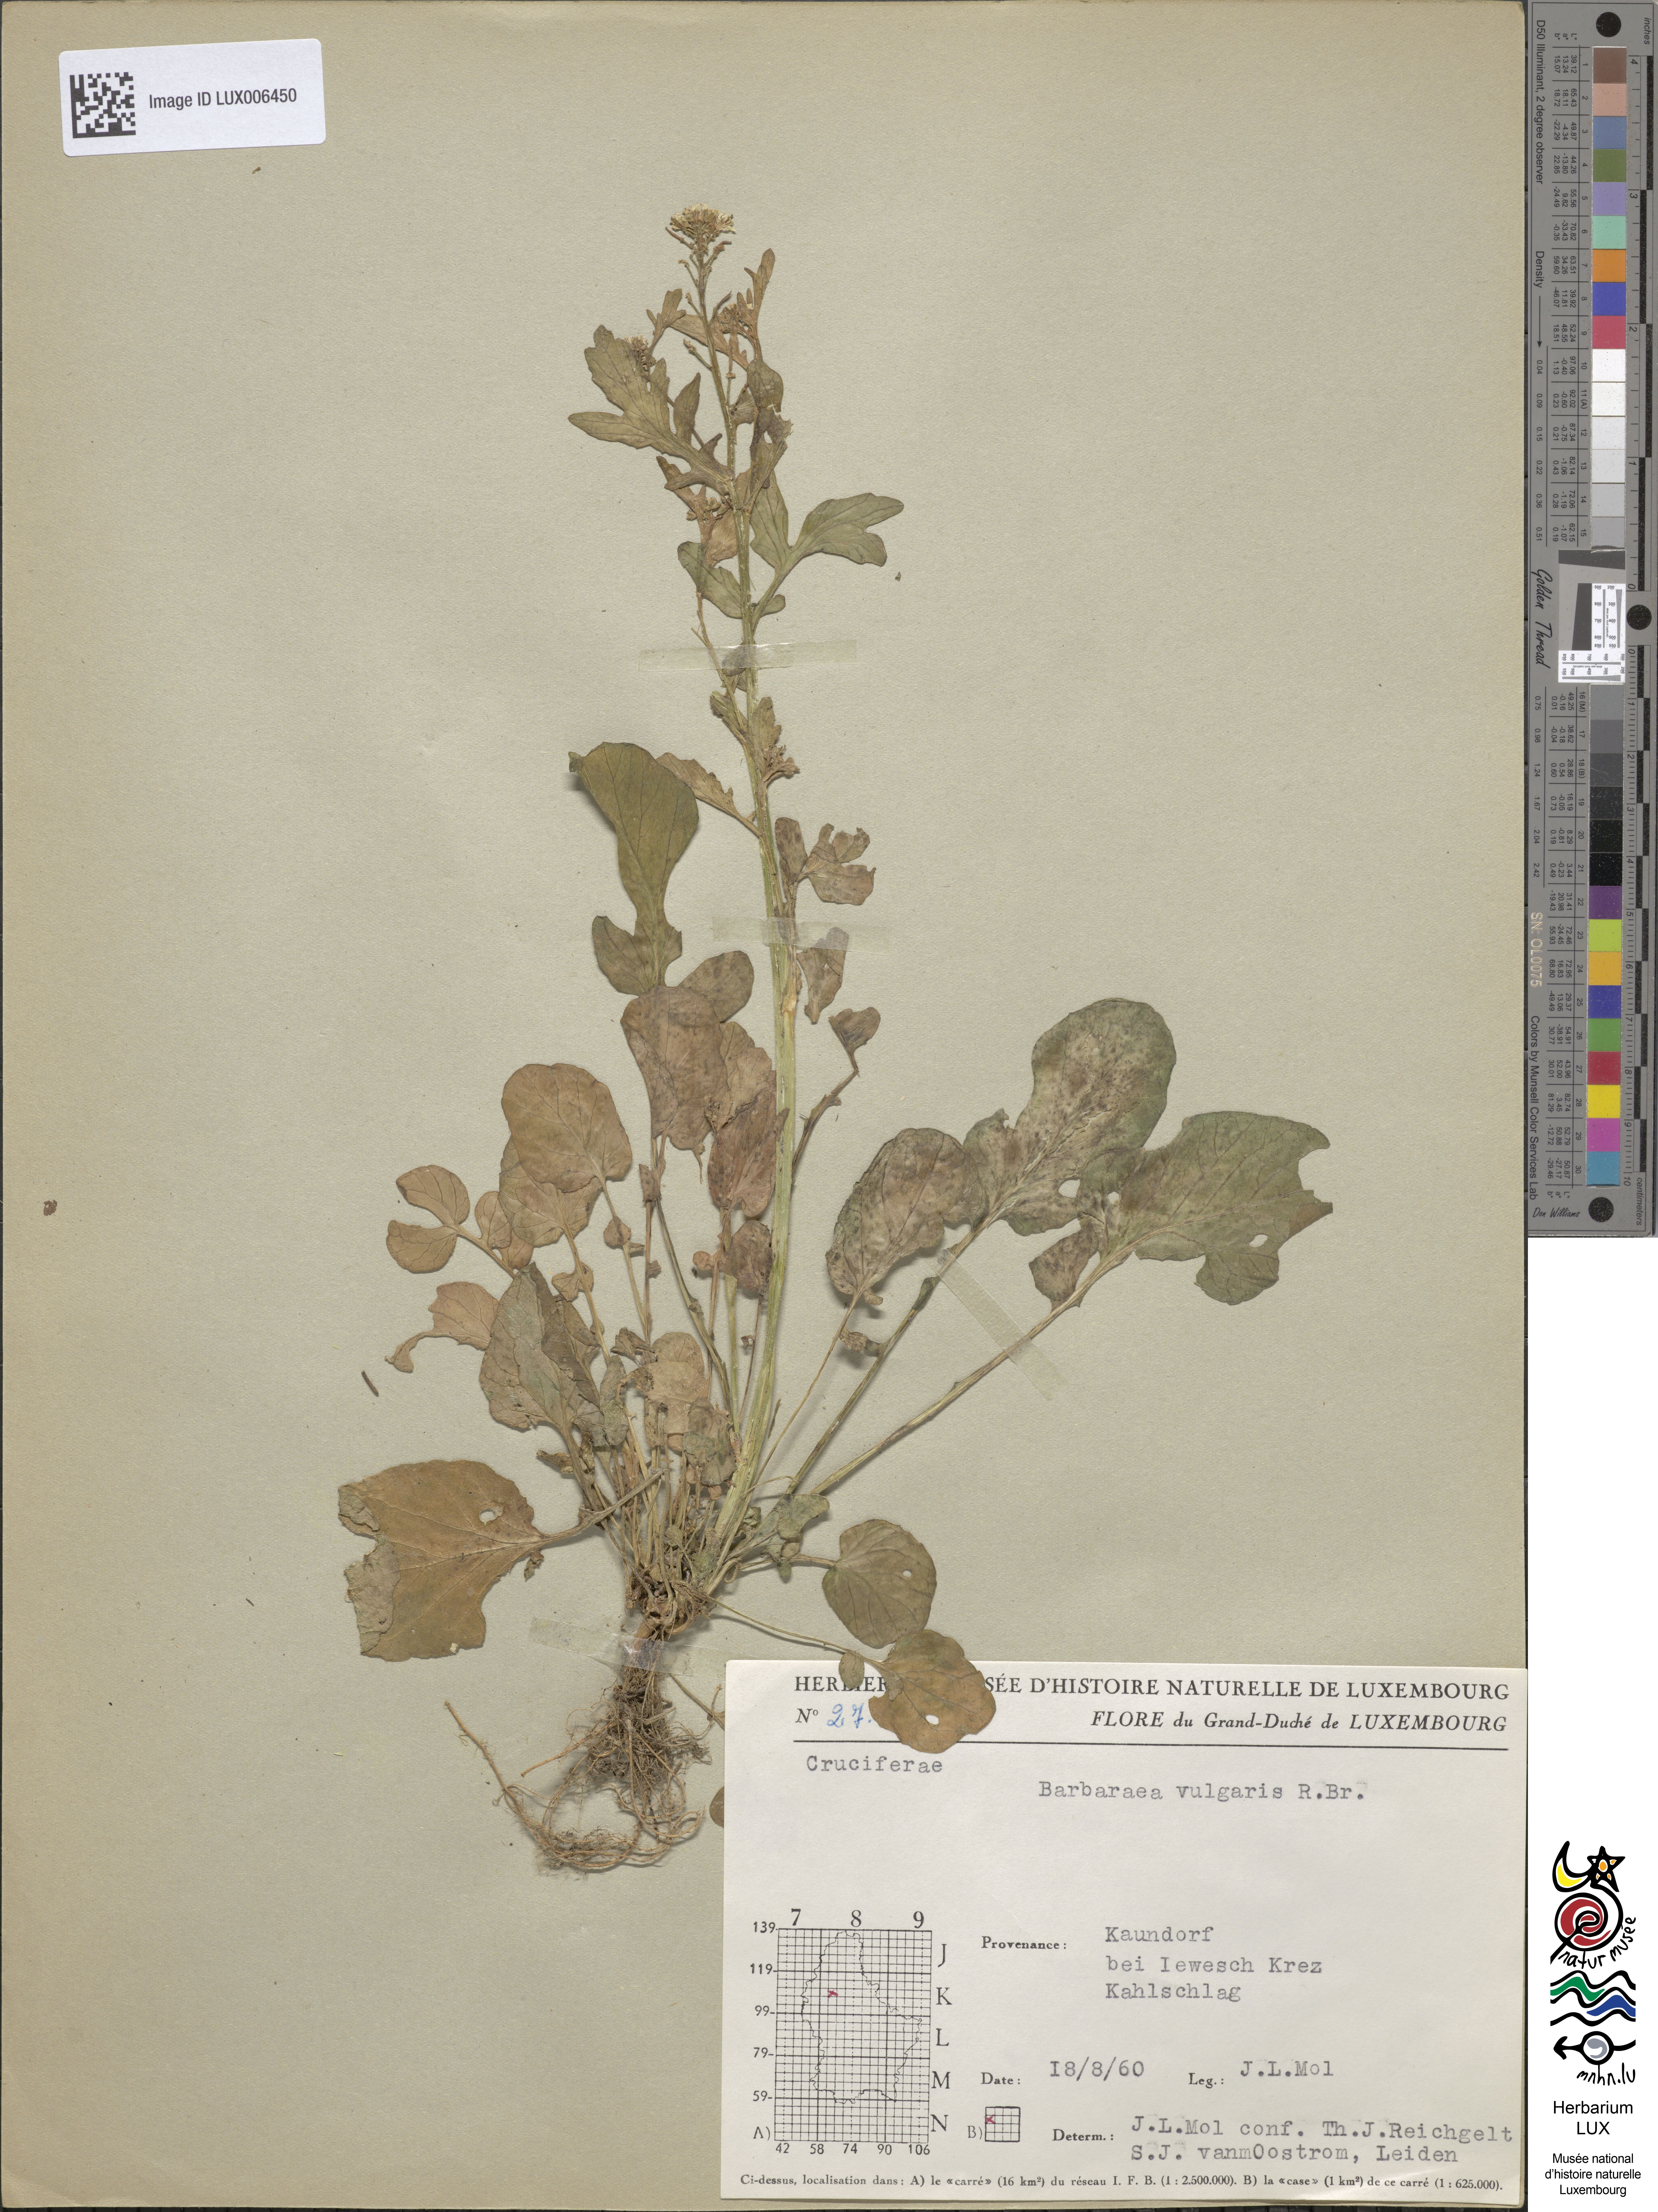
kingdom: Plantae
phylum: Tracheophyta
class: Magnoliopsida
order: Brassicales
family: Brassicaceae
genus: Barbarea
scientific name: Barbarea vulgaris
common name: Cressy-greens
